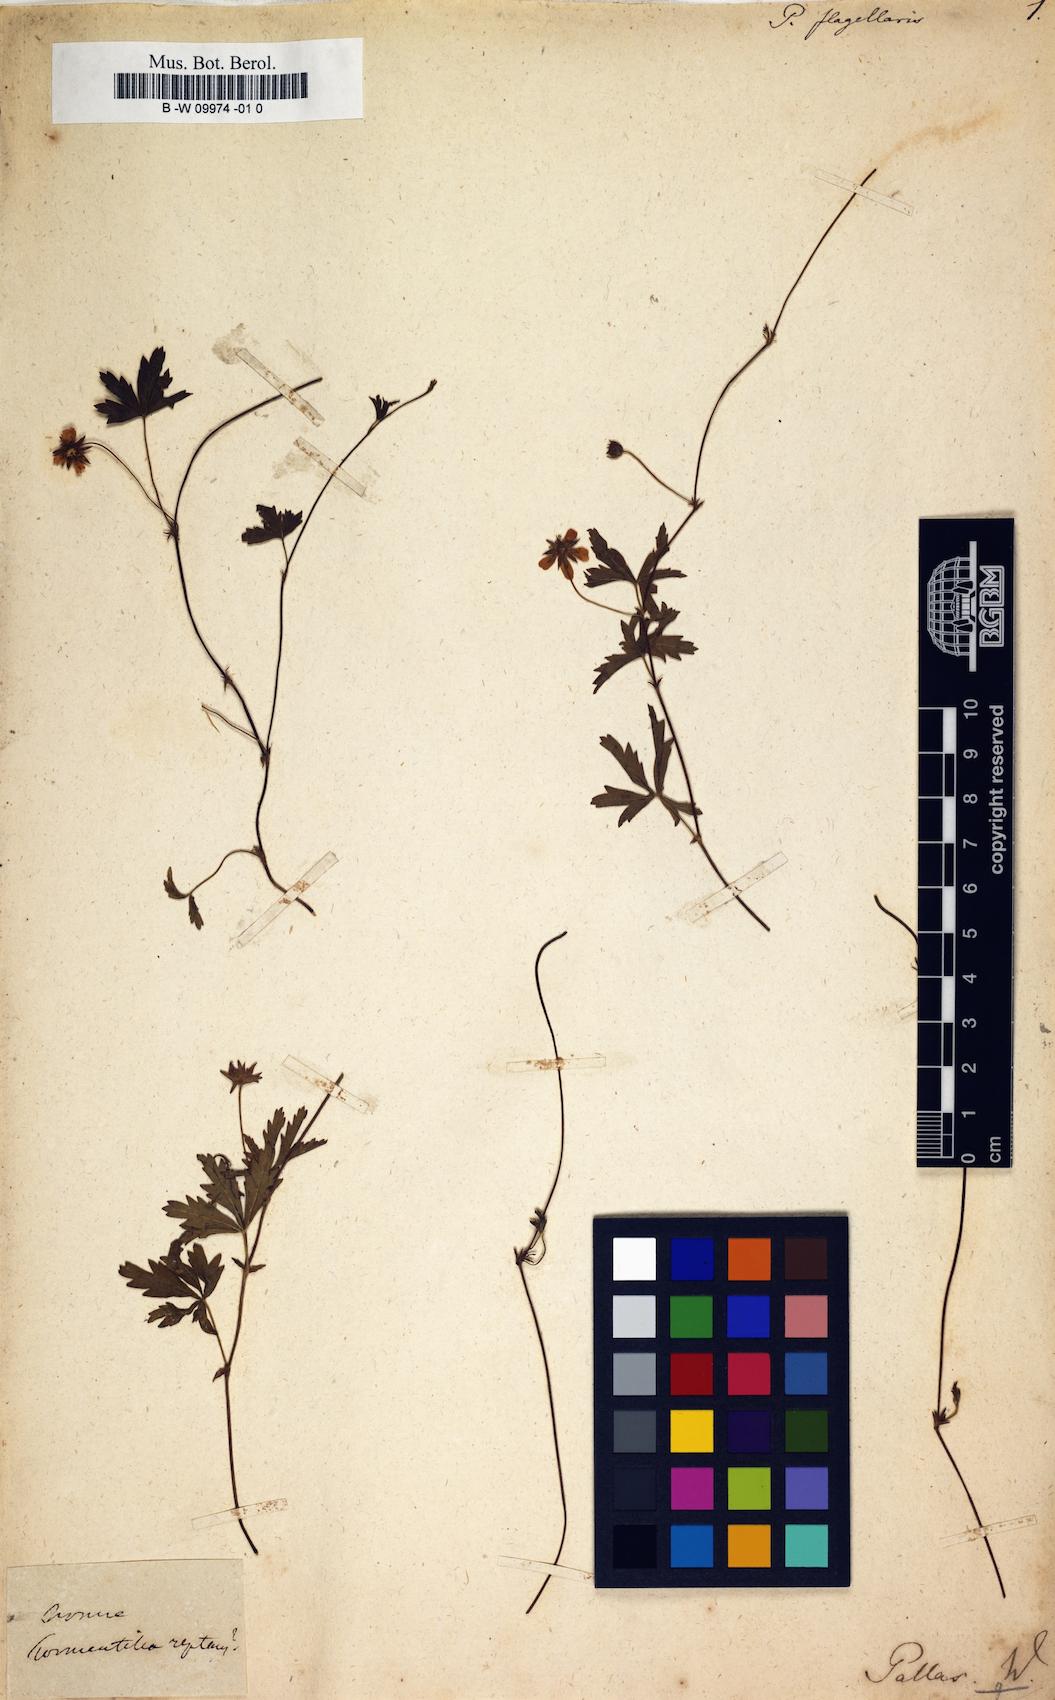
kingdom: Plantae
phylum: Tracheophyta
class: Magnoliopsida
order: Rosales
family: Rosaceae
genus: Potentilla
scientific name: Potentilla flagellaris
